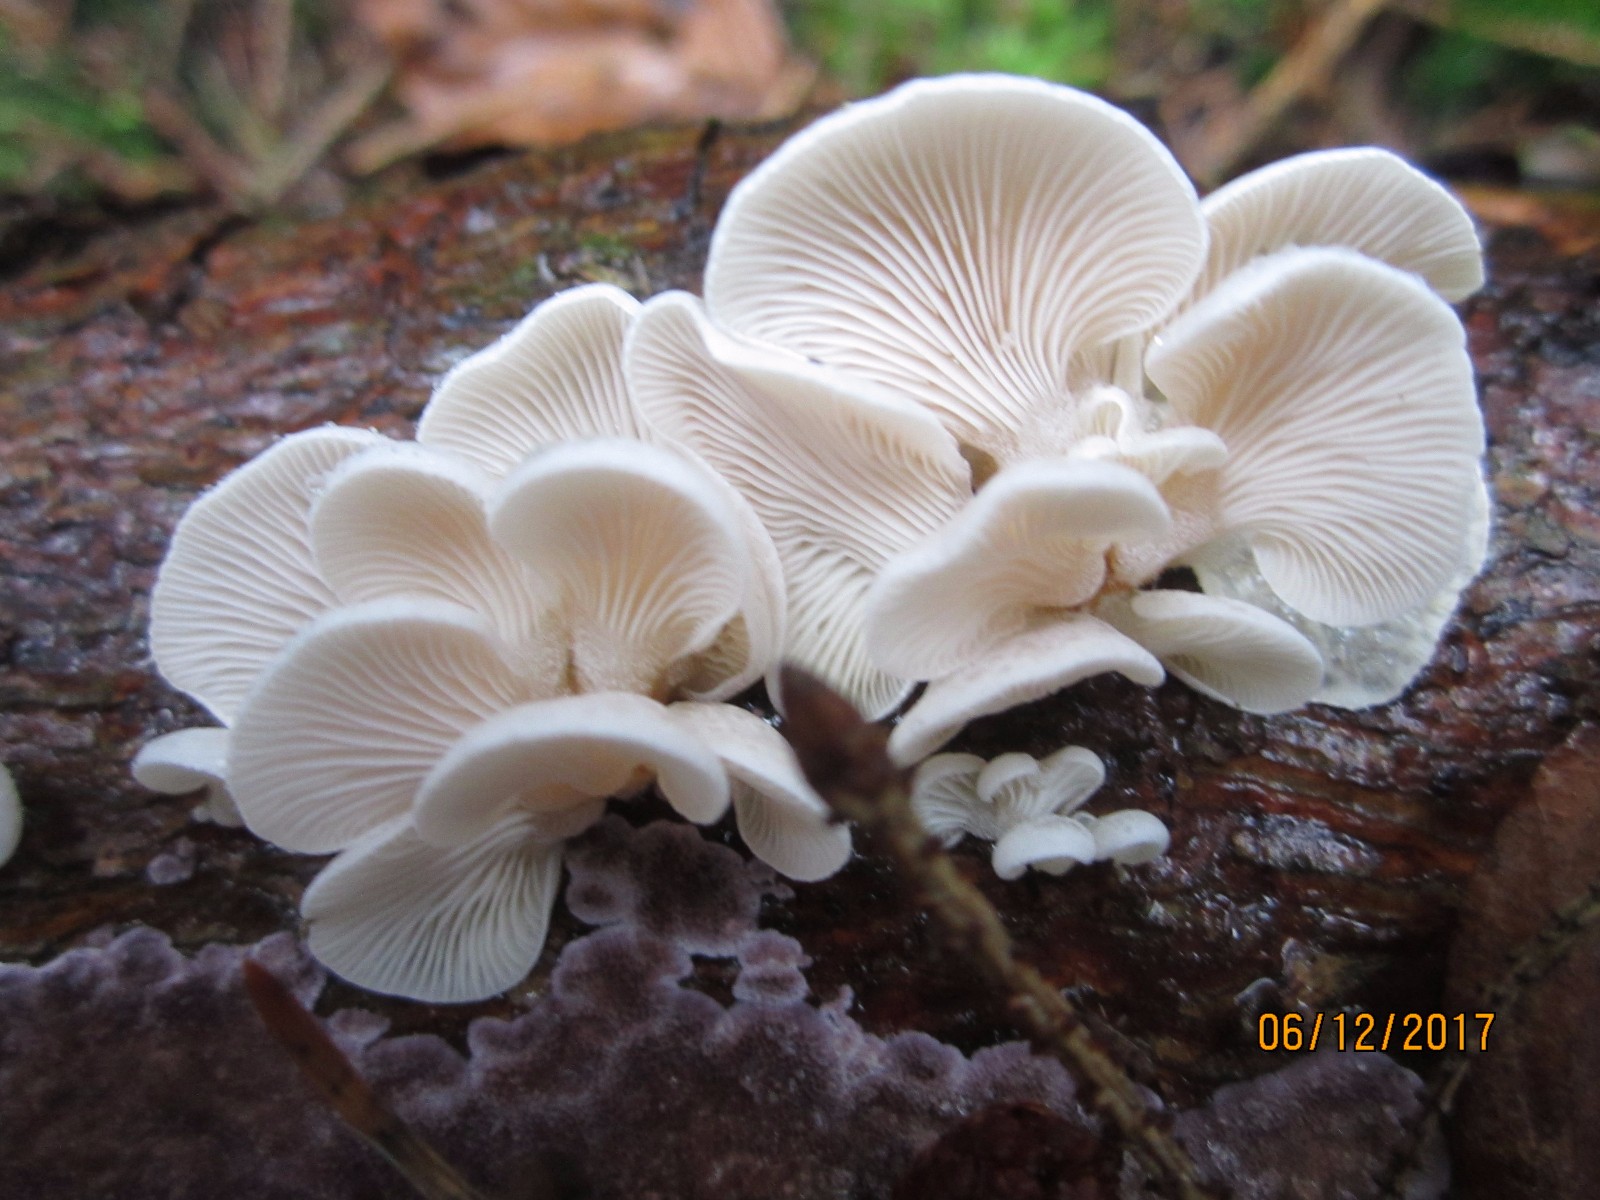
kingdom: Fungi
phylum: Basidiomycota
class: Agaricomycetes
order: Agaricales
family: Mycenaceae
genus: Panellus
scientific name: Panellus mitis
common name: mild epaulethat
